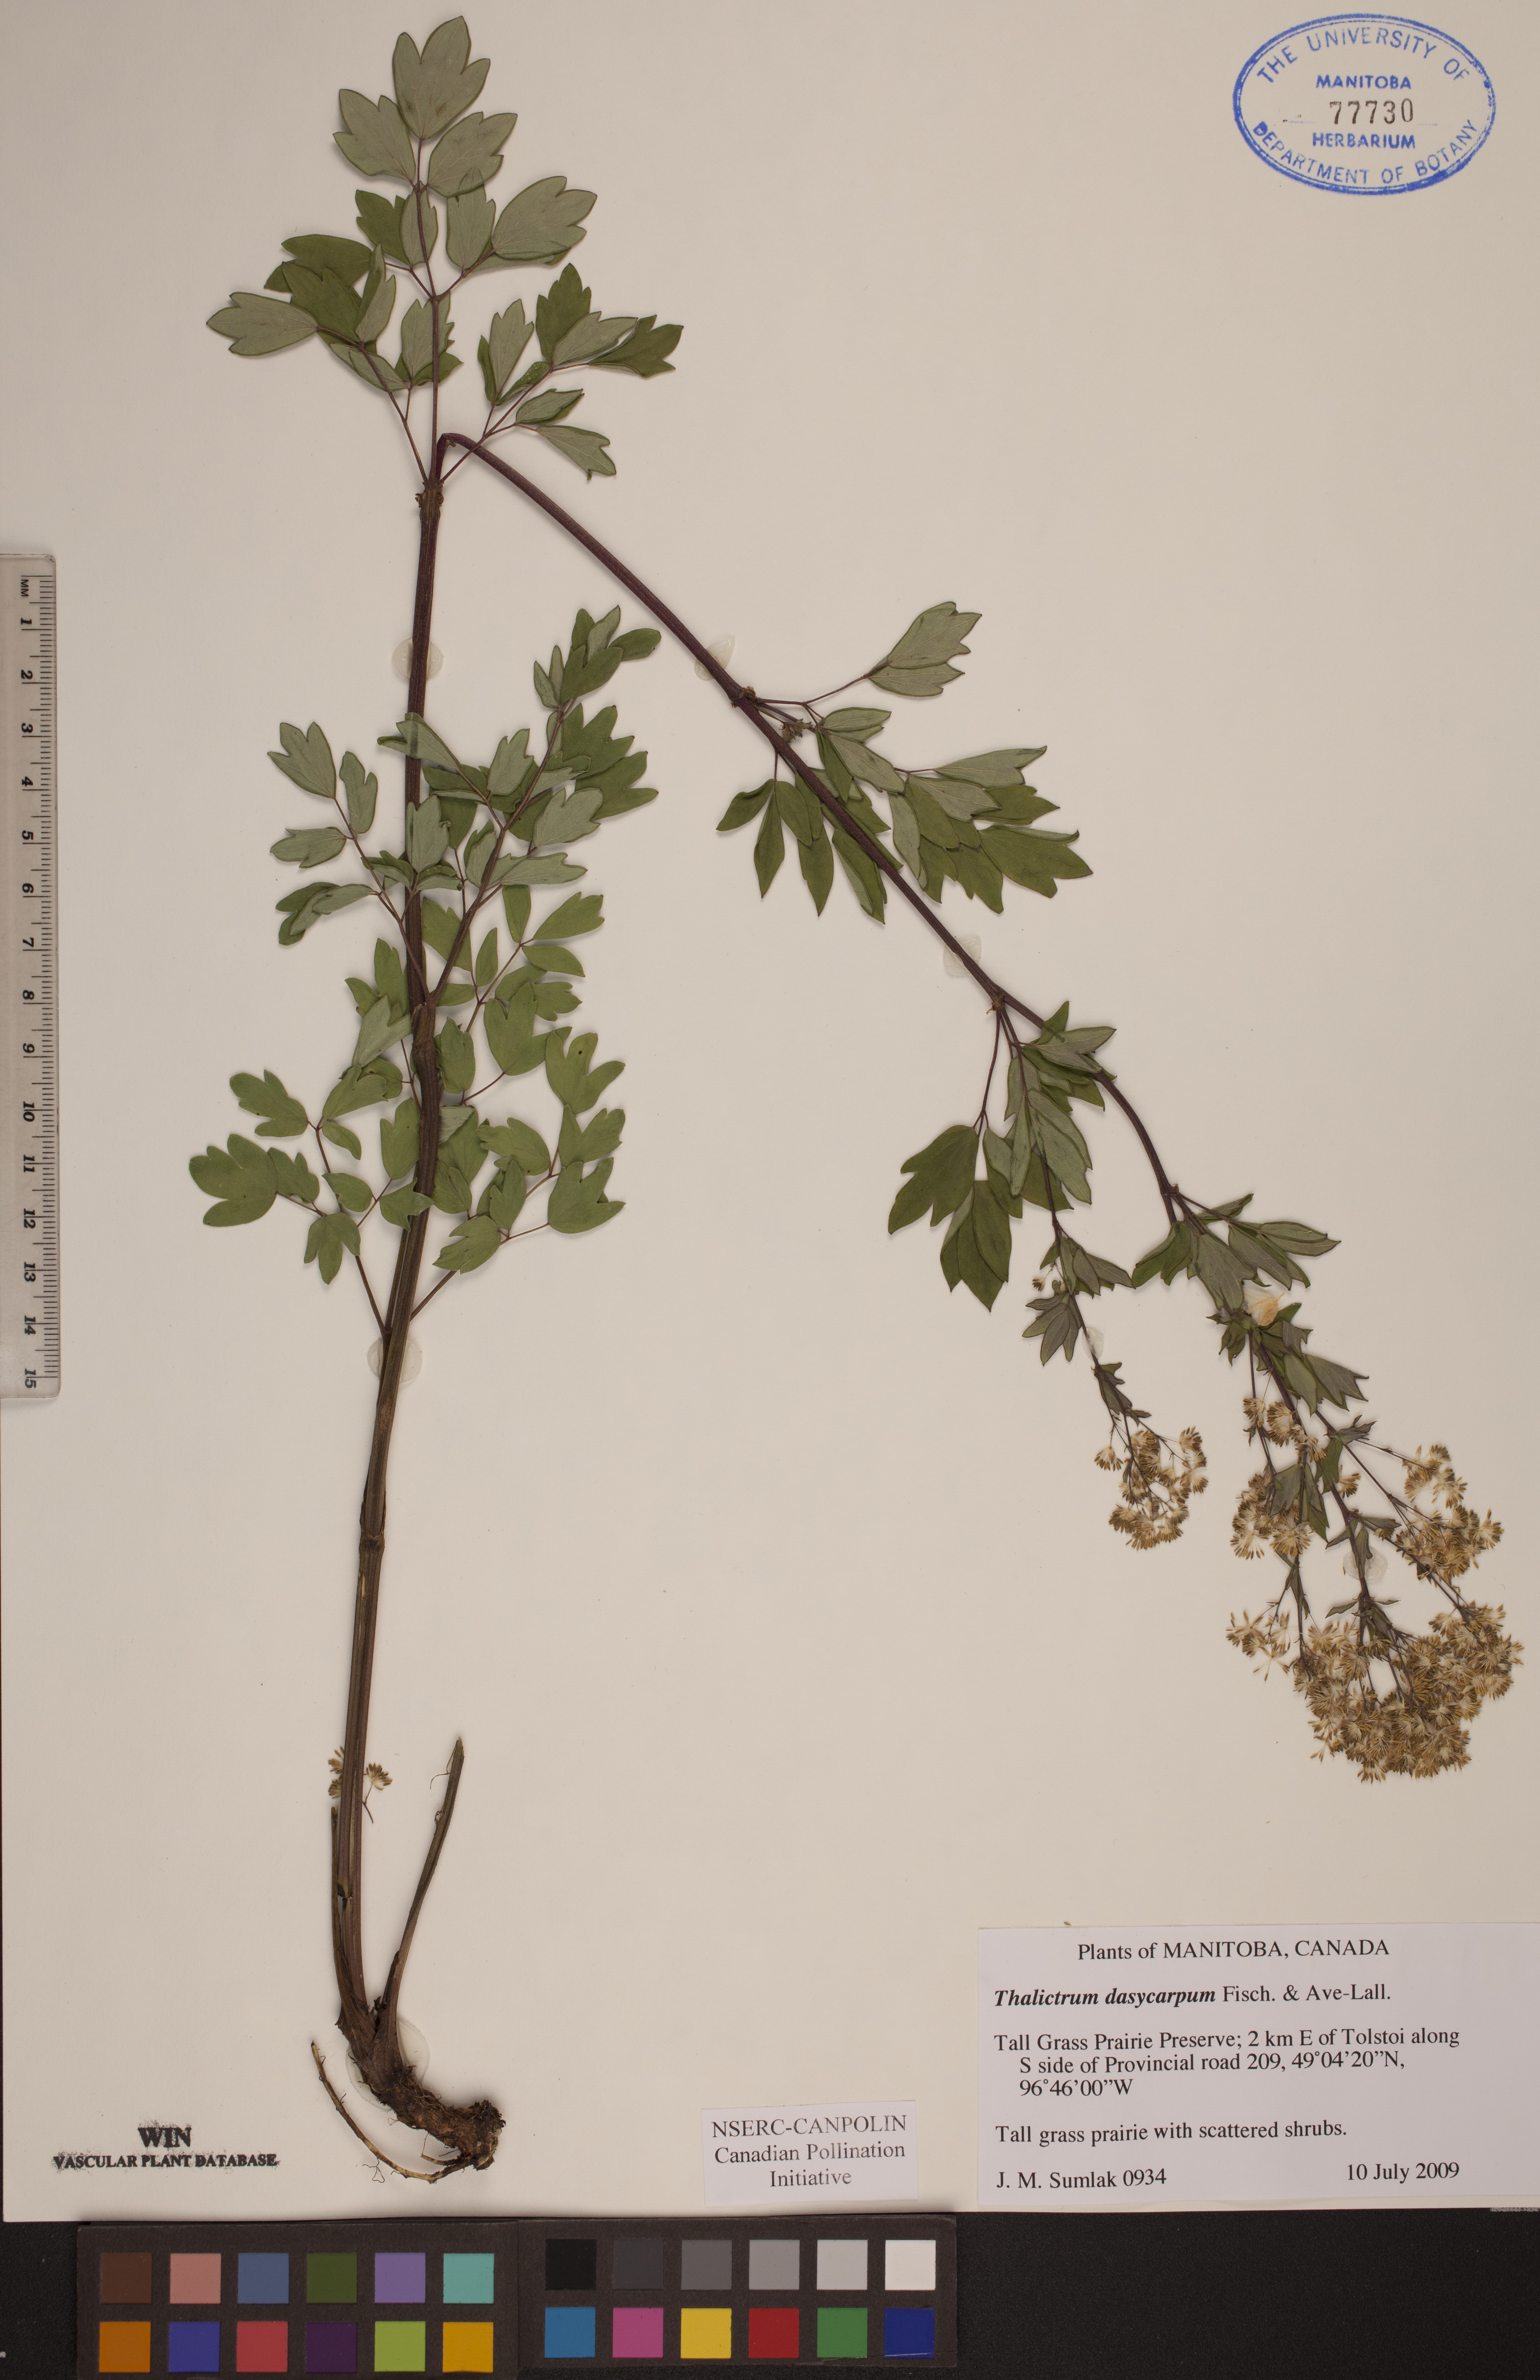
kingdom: Plantae
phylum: Tracheophyta
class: Magnoliopsida
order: Ranunculales
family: Ranunculaceae
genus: Thalictrum
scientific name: Thalictrum dasycarpum
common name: Purple meadow-rue
